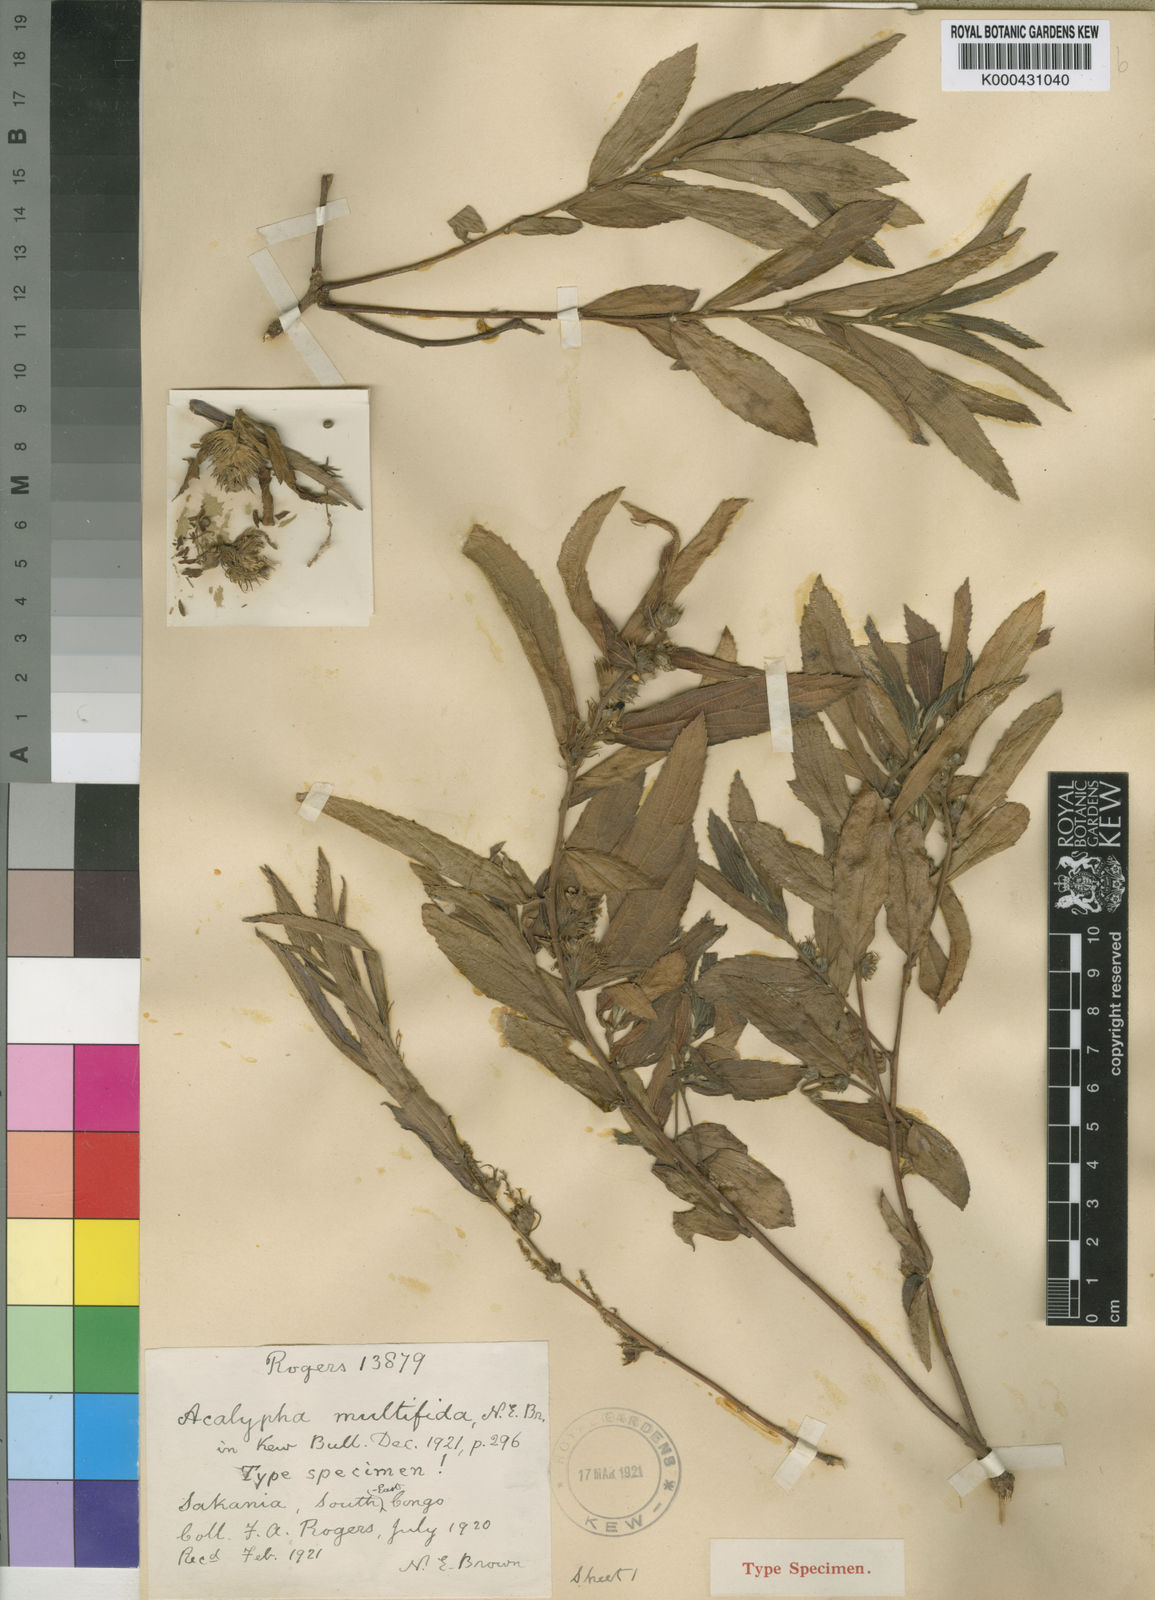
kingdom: Plantae
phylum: Tracheophyta
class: Magnoliopsida
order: Malpighiales
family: Euphorbiaceae
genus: Acalypha
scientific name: Acalypha multifida
